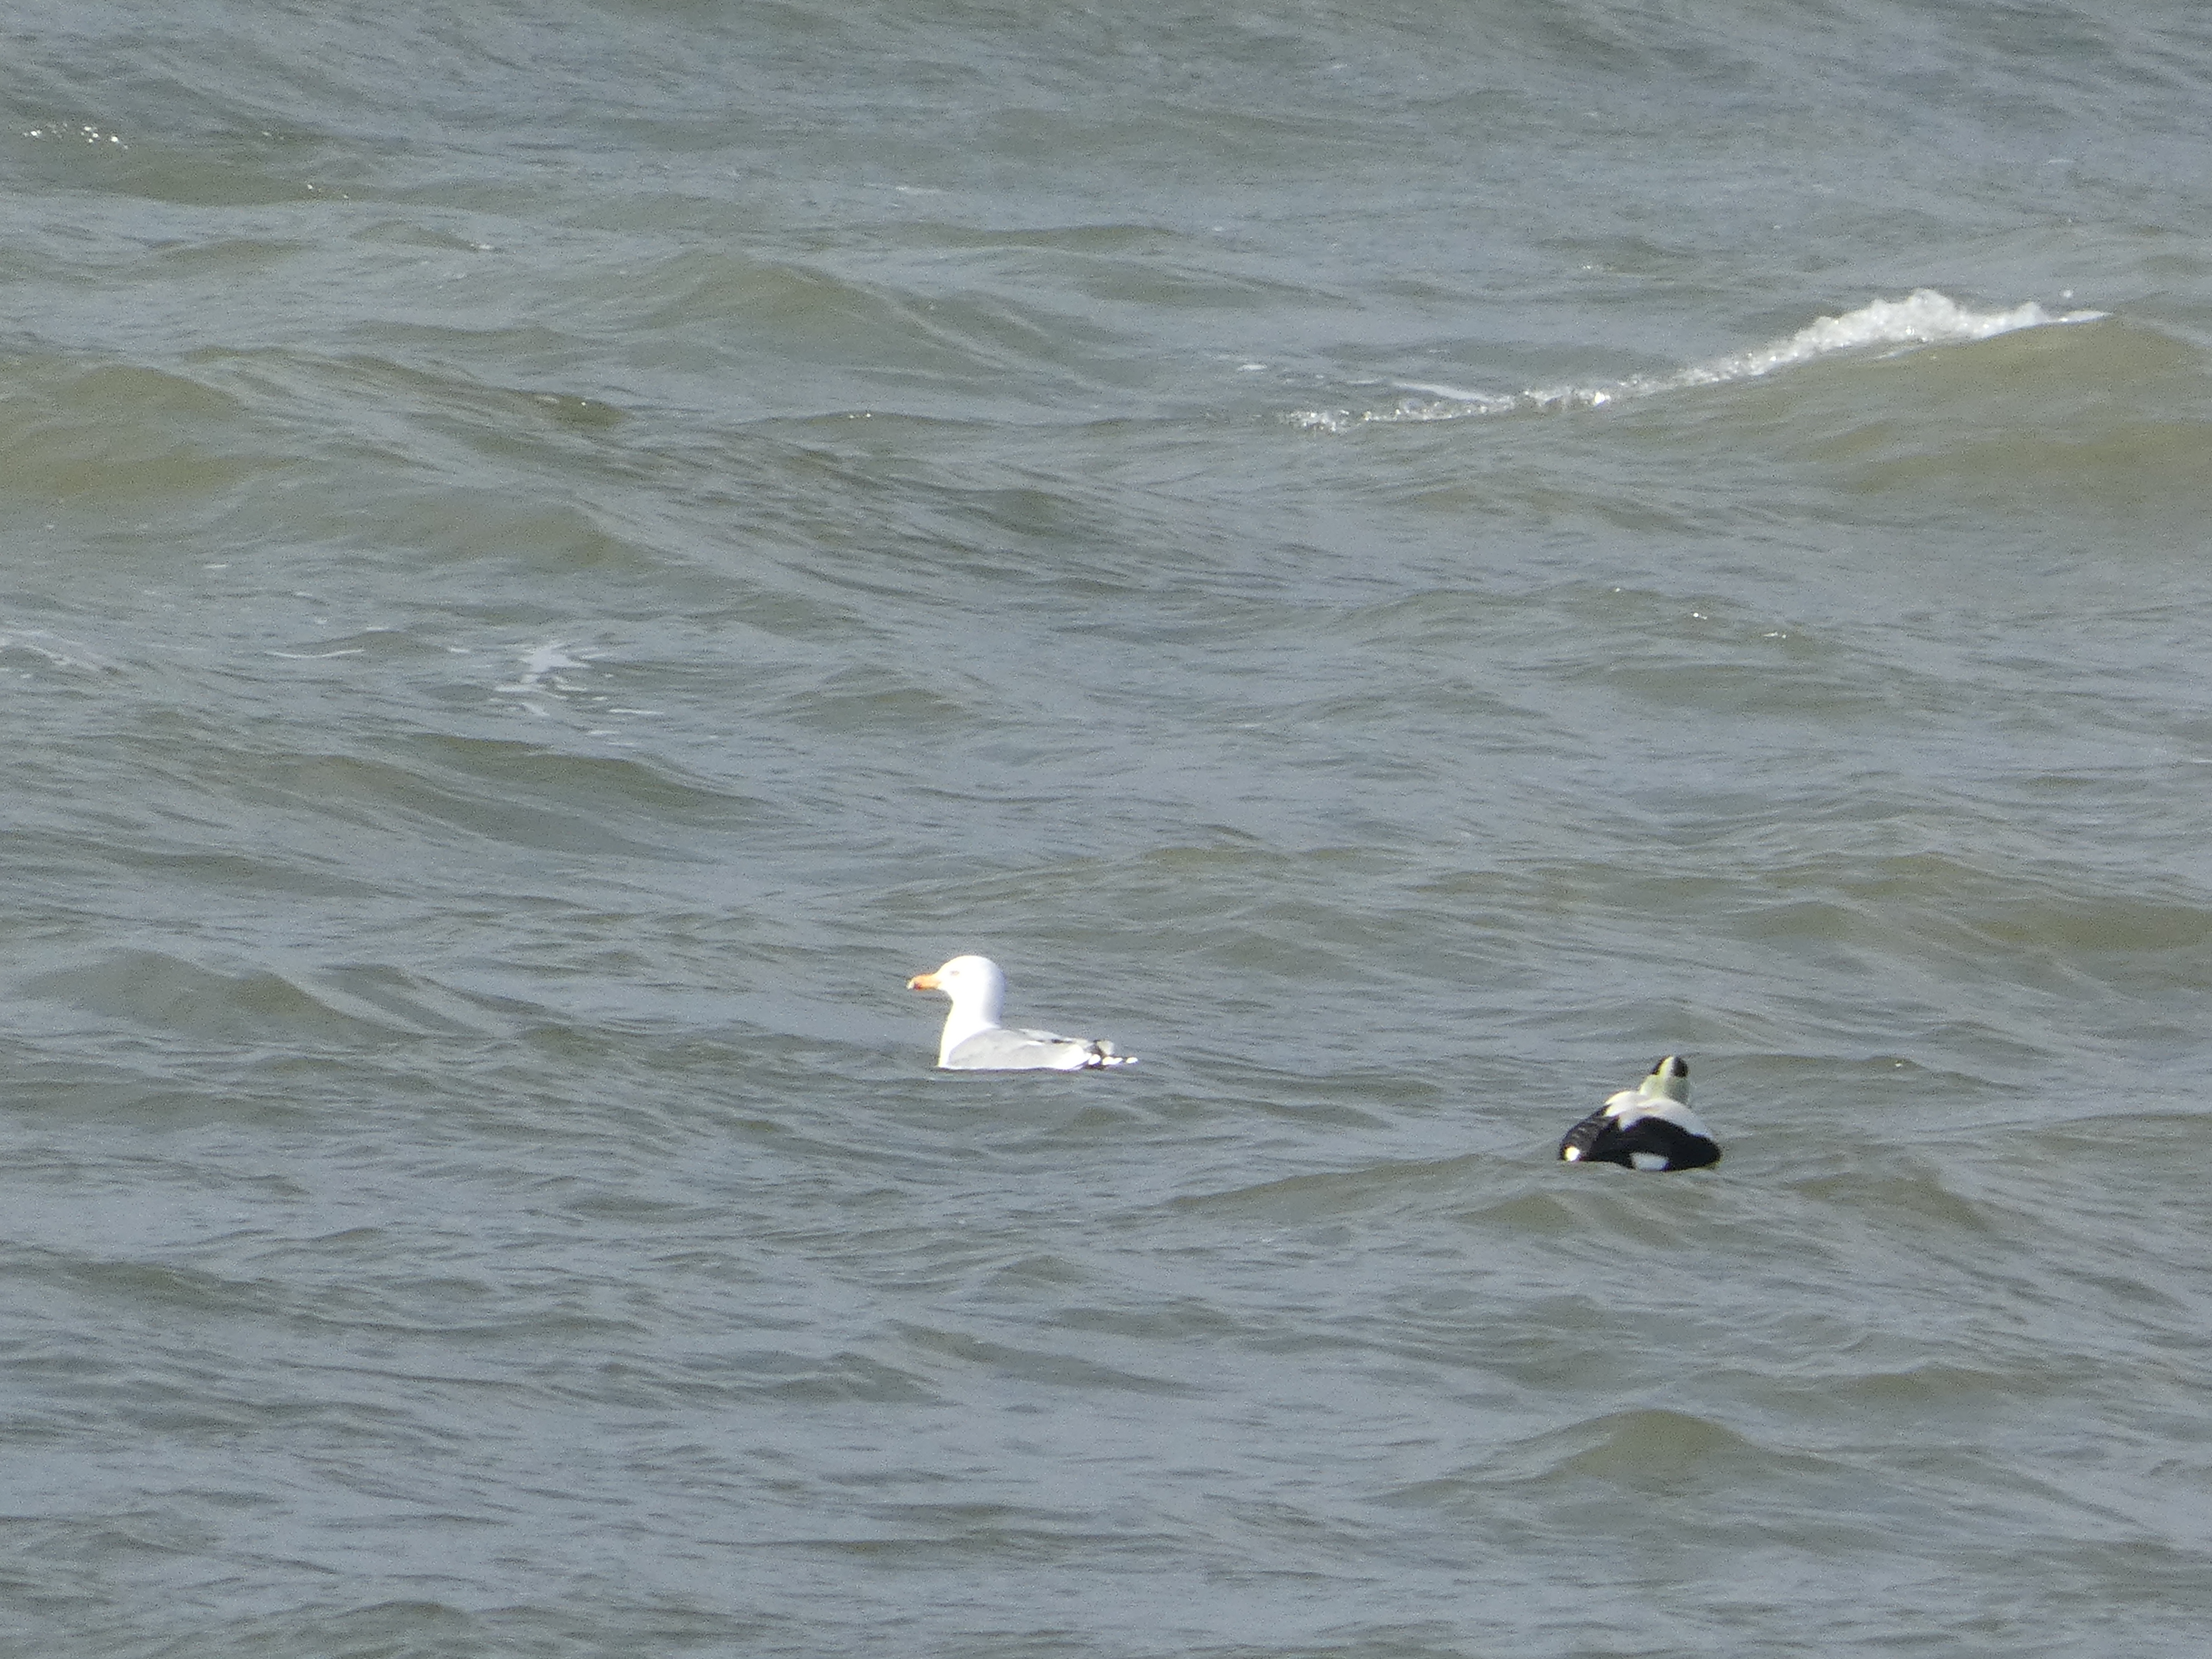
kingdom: Animalia
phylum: Chordata
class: Aves
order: Charadriiformes
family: Laridae
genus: Larus
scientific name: Larus argentatus
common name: Sølvmåge
